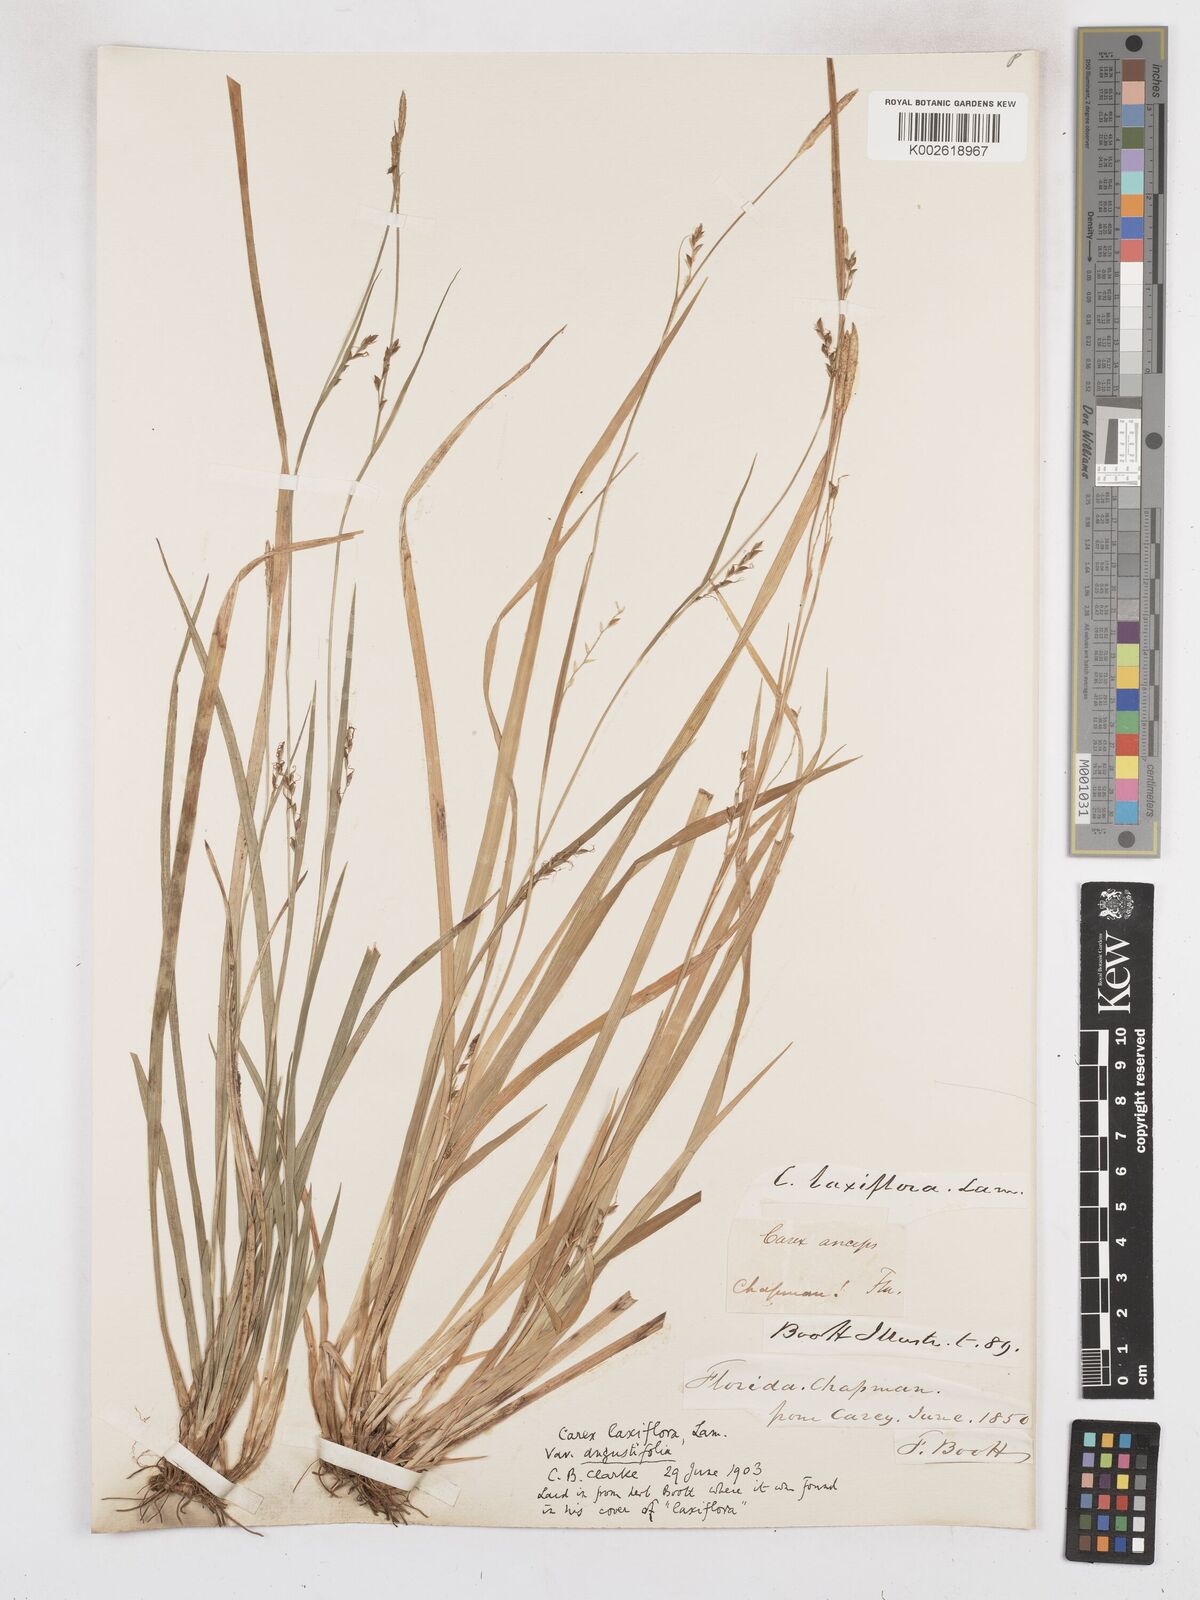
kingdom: Plantae
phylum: Tracheophyta
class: Liliopsida
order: Poales
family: Cyperaceae
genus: Carex
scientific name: Carex laxiflora
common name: Beech wood sedge
